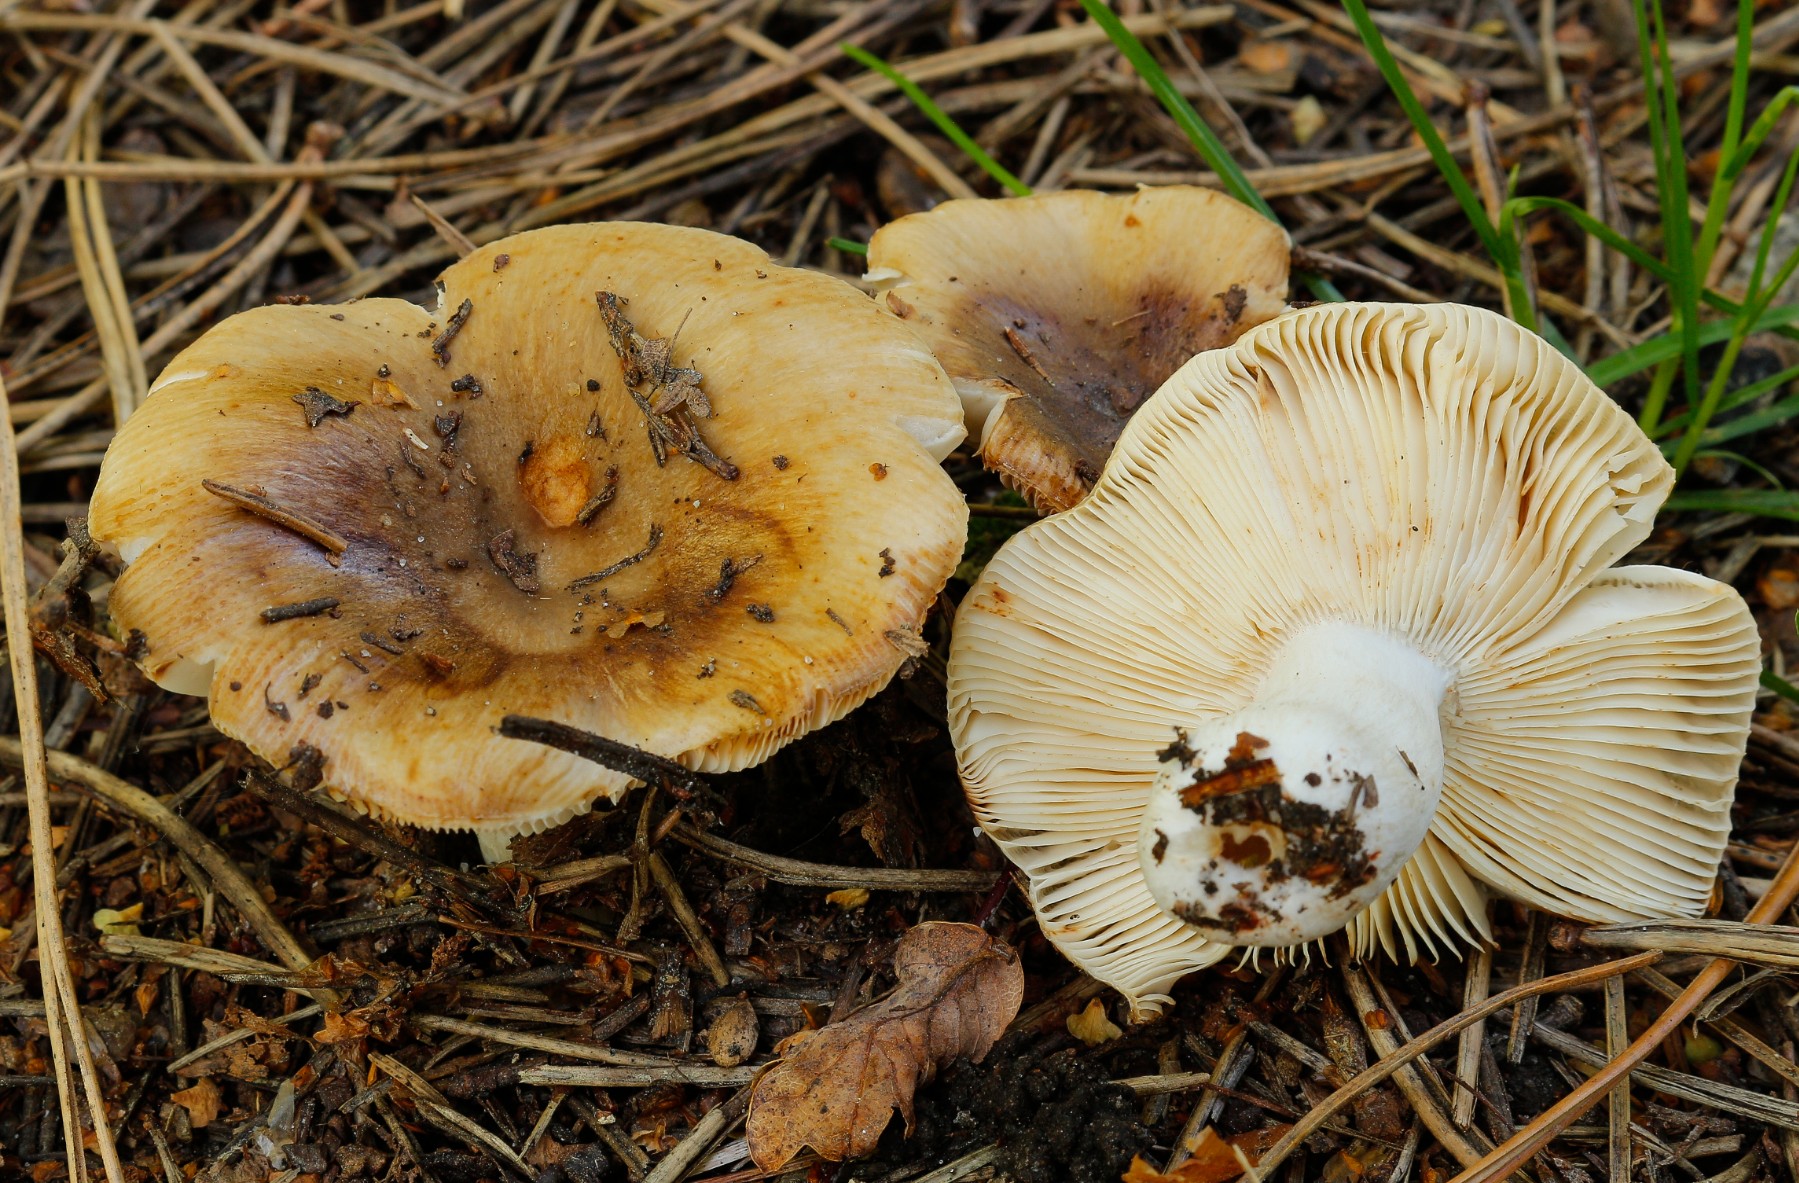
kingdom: Fungi
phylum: Basidiomycota
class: Agaricomycetes
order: Russulales
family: Russulaceae
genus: Russula
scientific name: Russula
